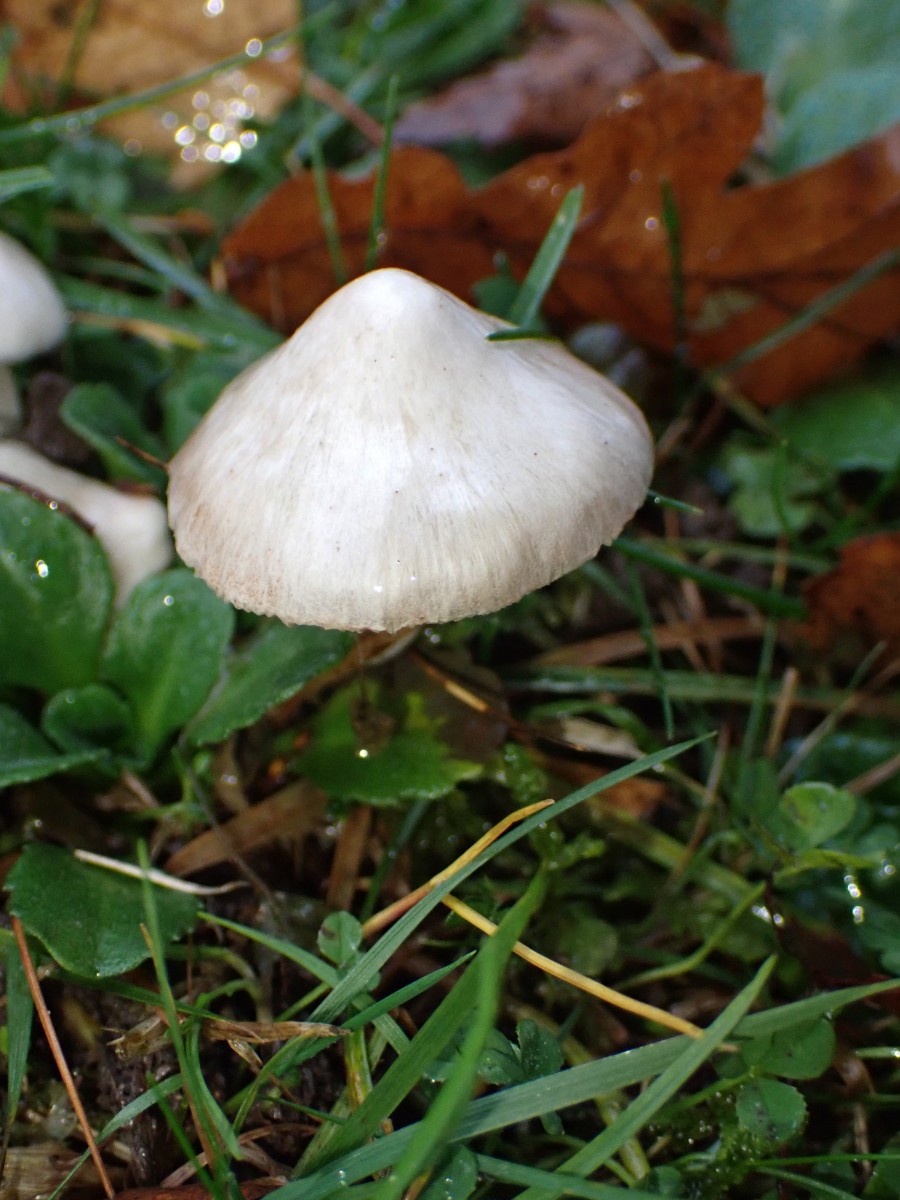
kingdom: Fungi
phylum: Basidiomycota
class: Agaricomycetes
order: Agaricales
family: Inocybaceae
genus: Inocybe
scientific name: Inocybe
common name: almindelig trævlhat
